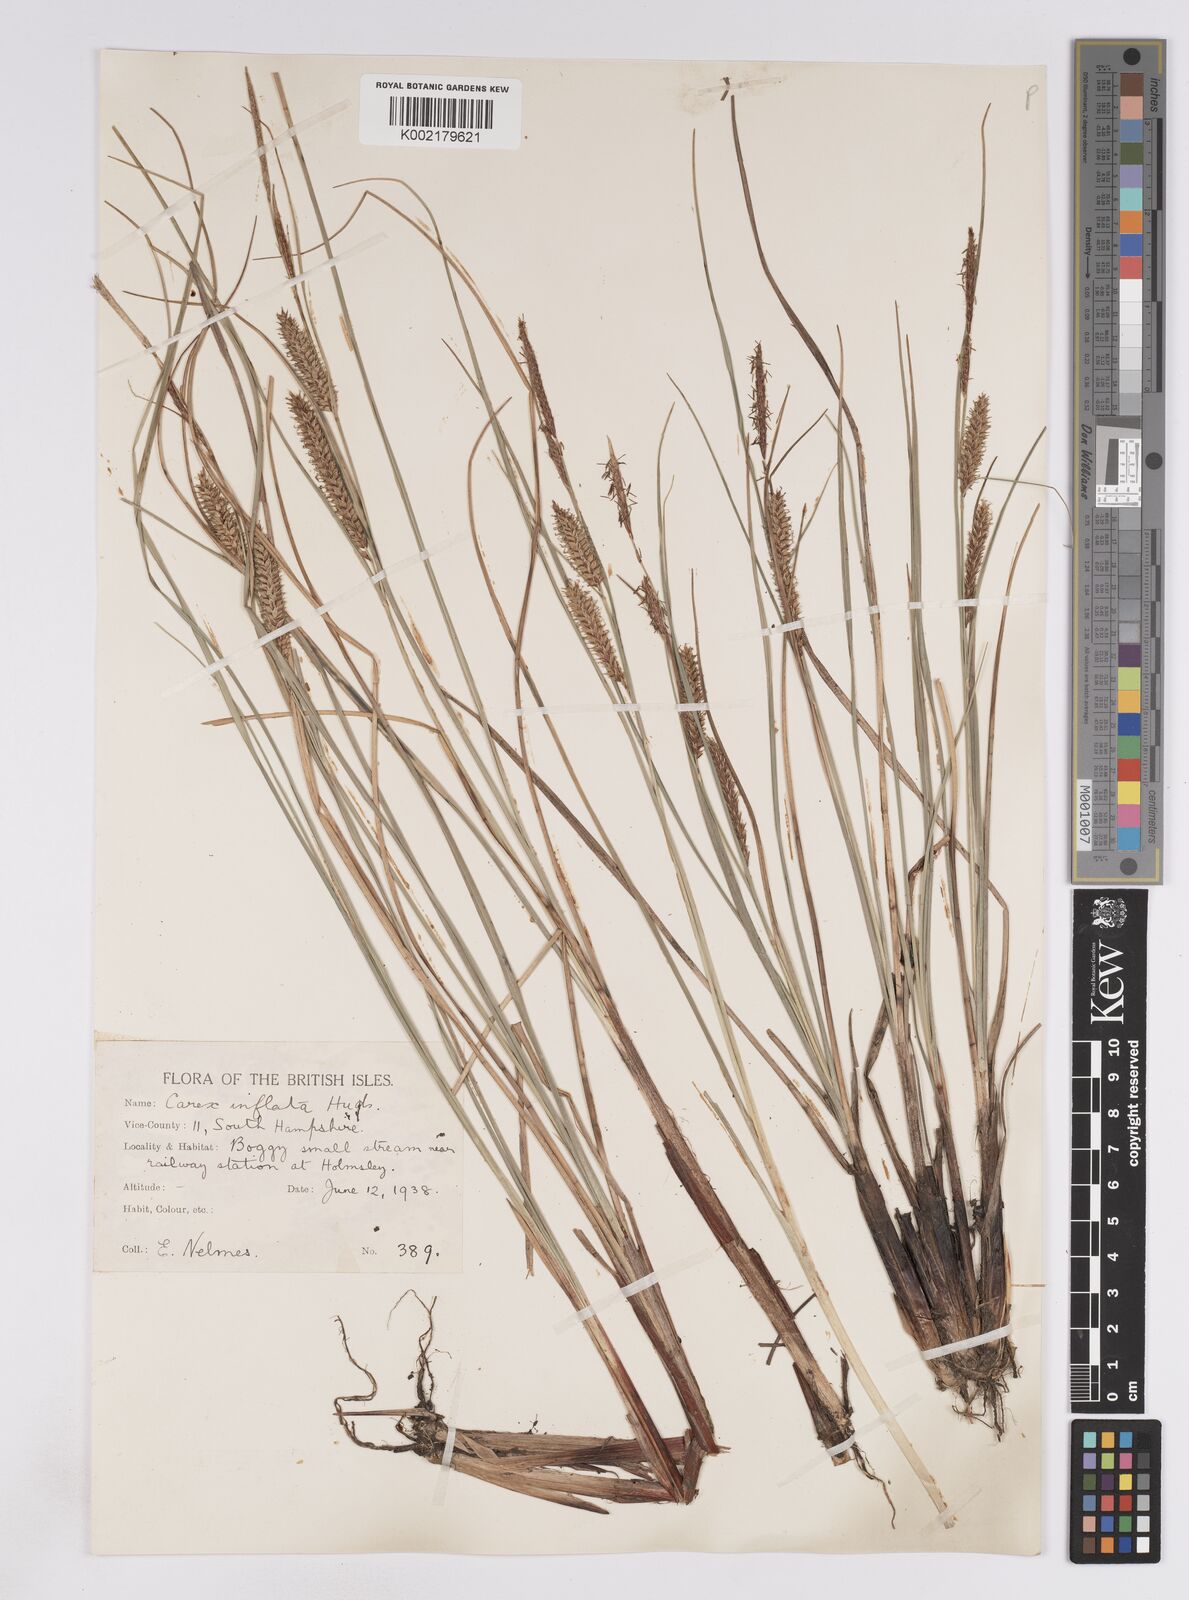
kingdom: Plantae
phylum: Tracheophyta
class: Liliopsida
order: Poales
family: Cyperaceae
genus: Carex
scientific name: Carex rostrata
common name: Bottle sedge
